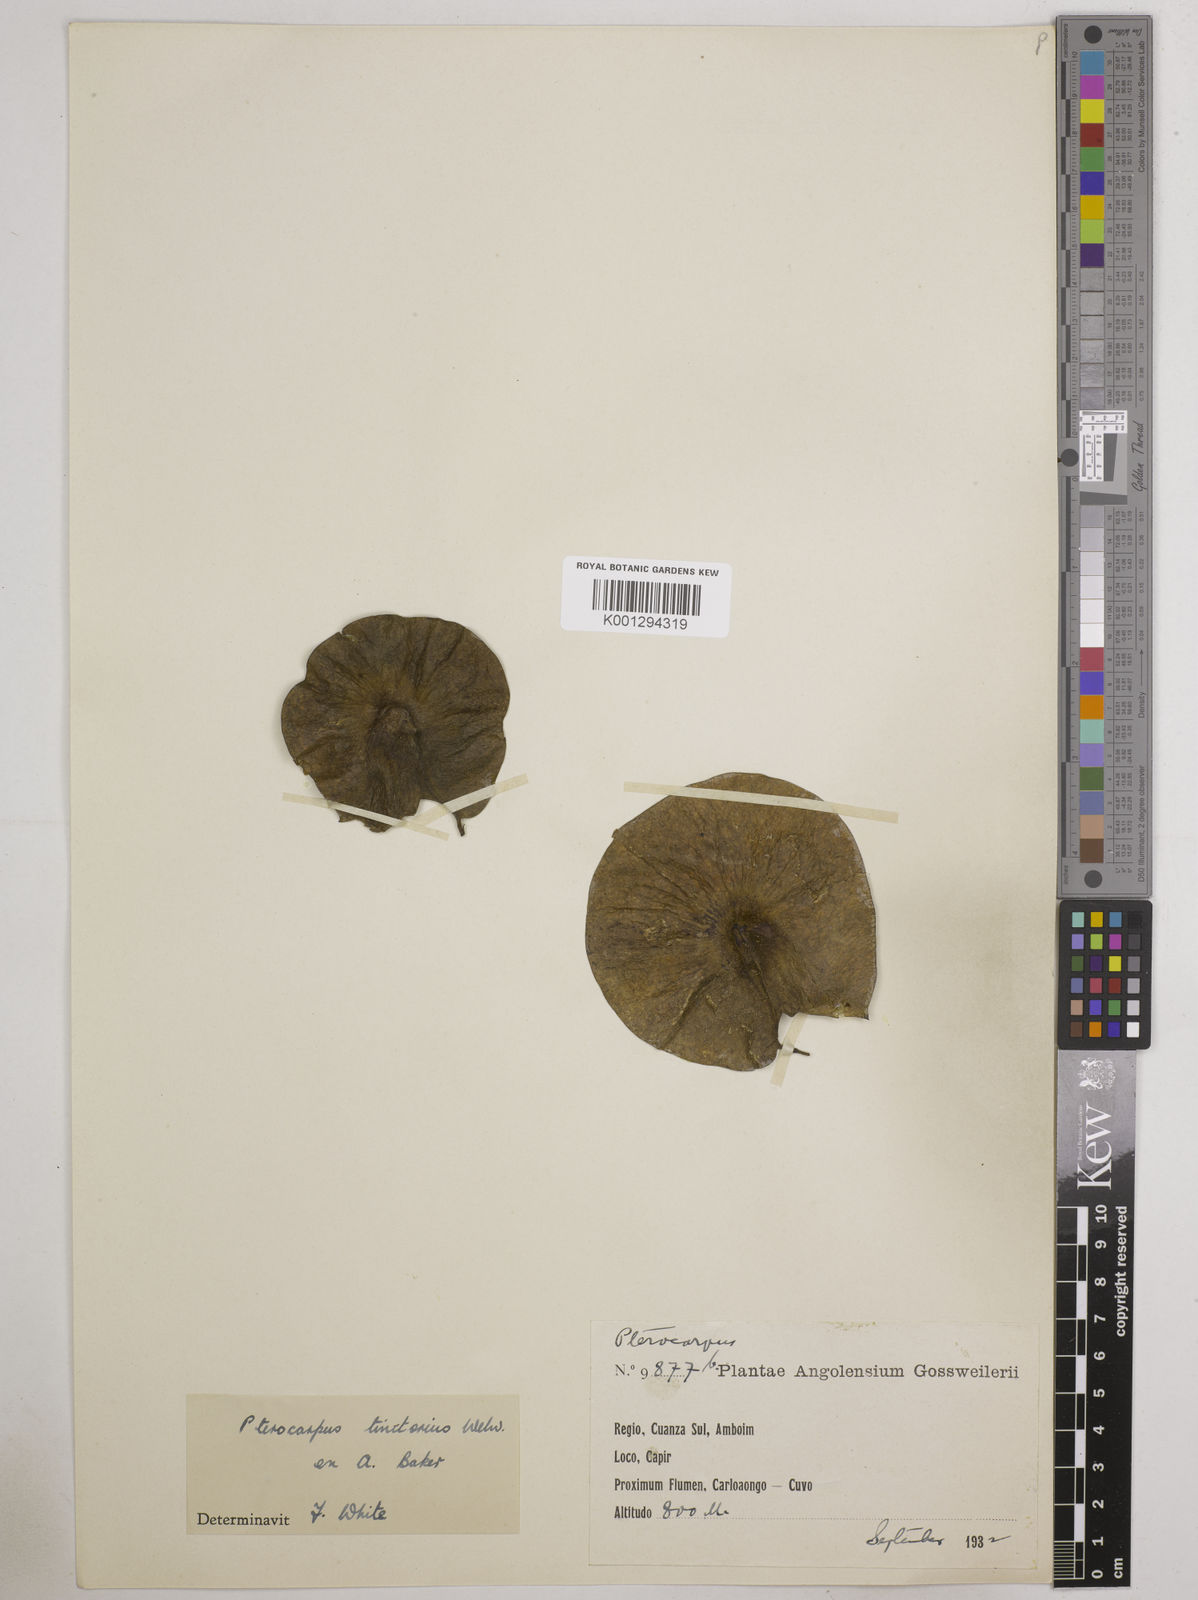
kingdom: Plantae
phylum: Tracheophyta
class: Magnoliopsida
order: Fabales
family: Fabaceae
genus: Pterocarpus
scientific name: Pterocarpus tinctorius
